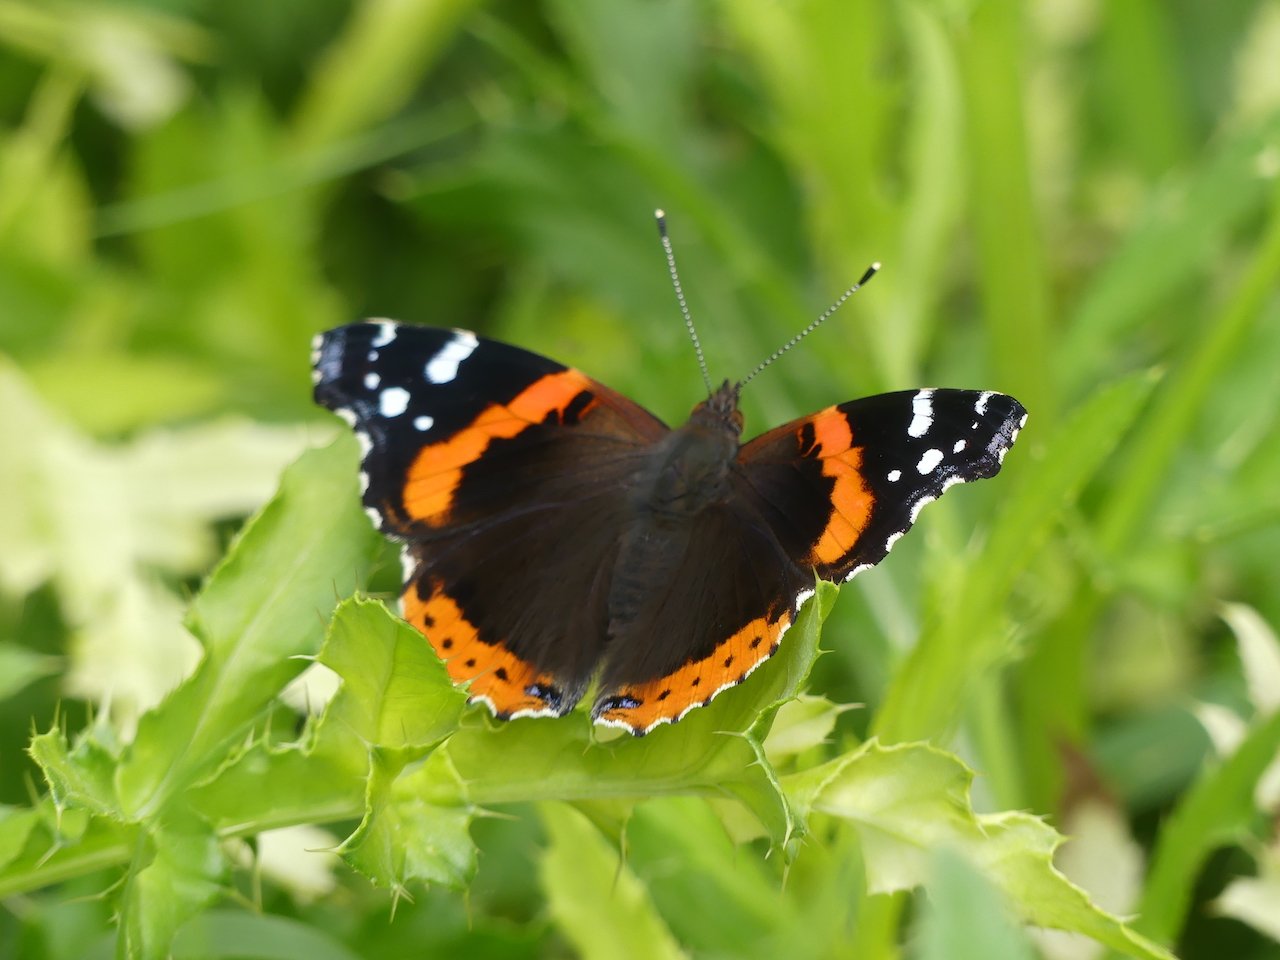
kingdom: Animalia
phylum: Arthropoda
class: Insecta
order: Lepidoptera
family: Nymphalidae
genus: Vanessa
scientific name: Vanessa atalanta
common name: Red Admiral
